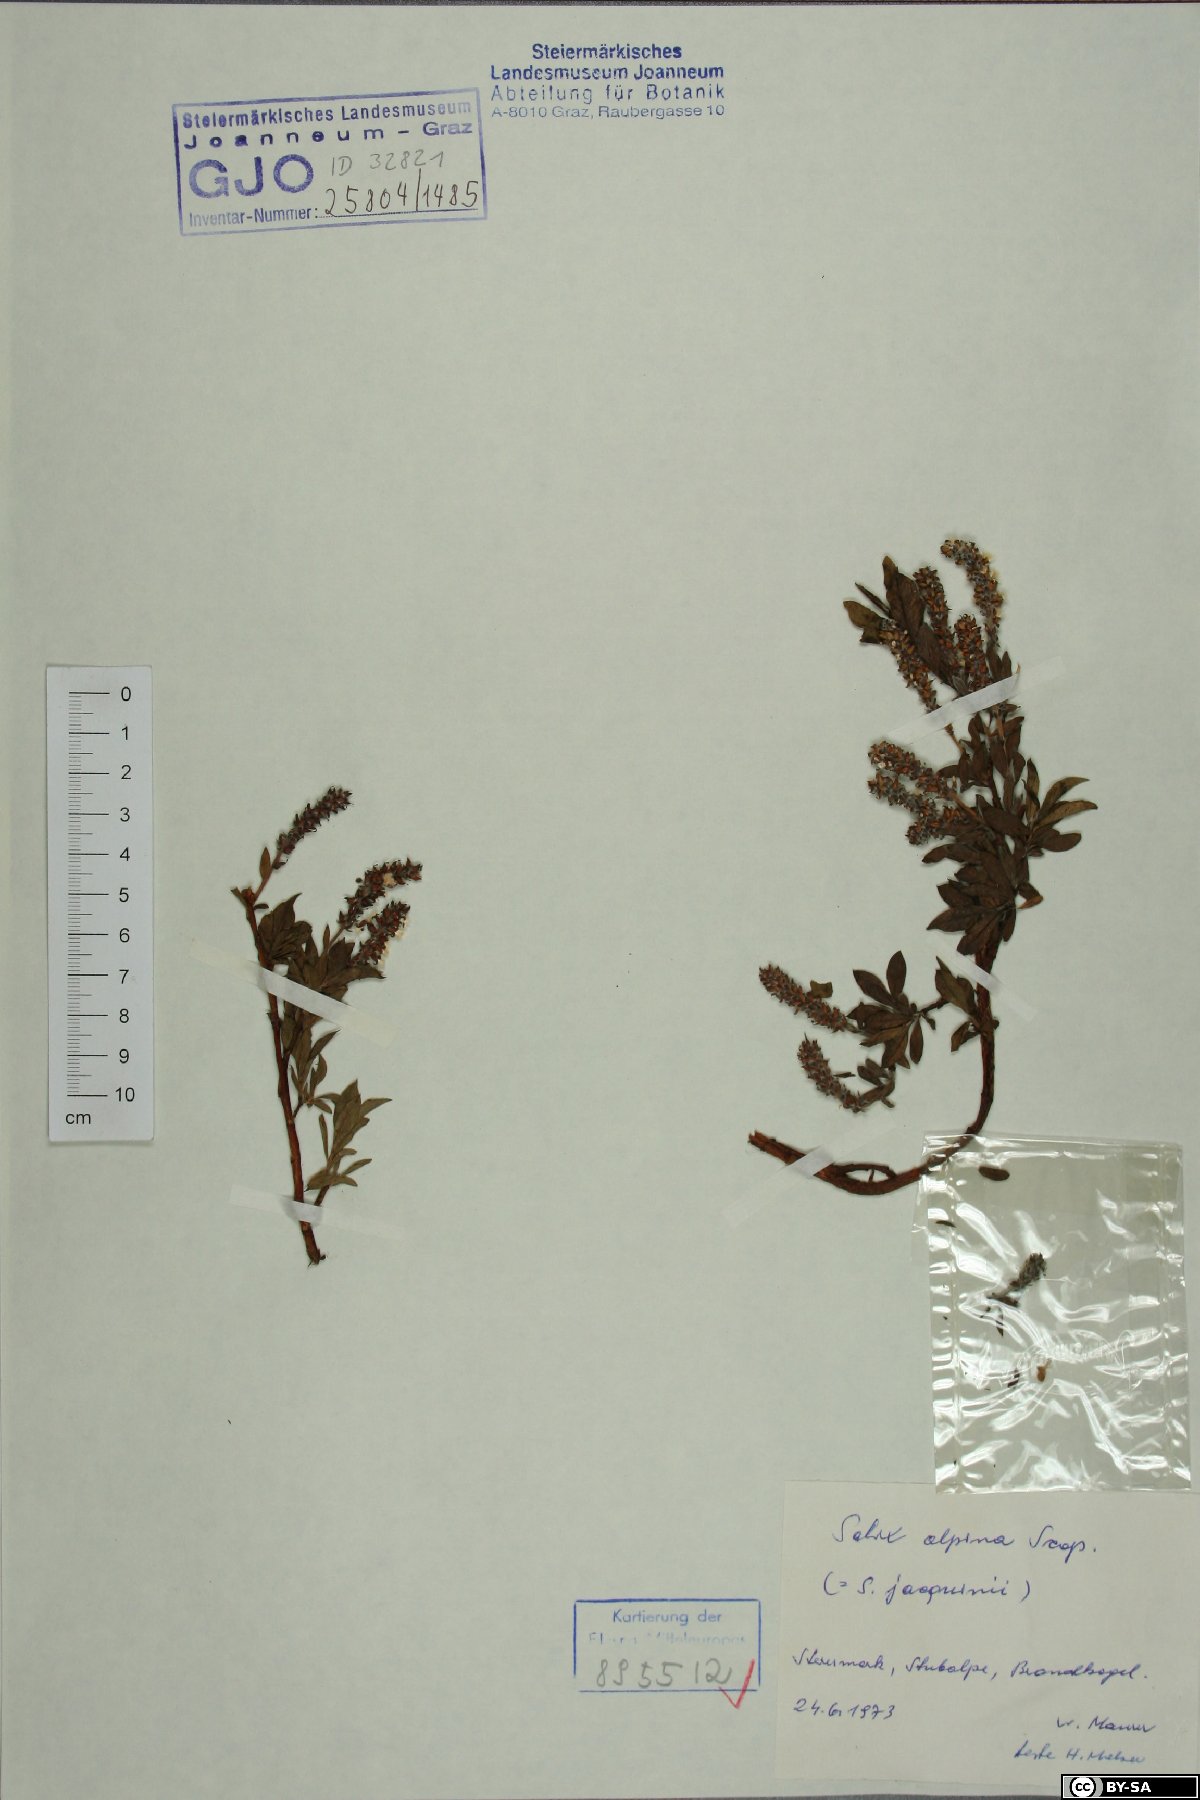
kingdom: Plantae
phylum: Tracheophyta
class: Magnoliopsida
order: Malpighiales
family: Salicaceae
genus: Salix
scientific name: Salix alpina
